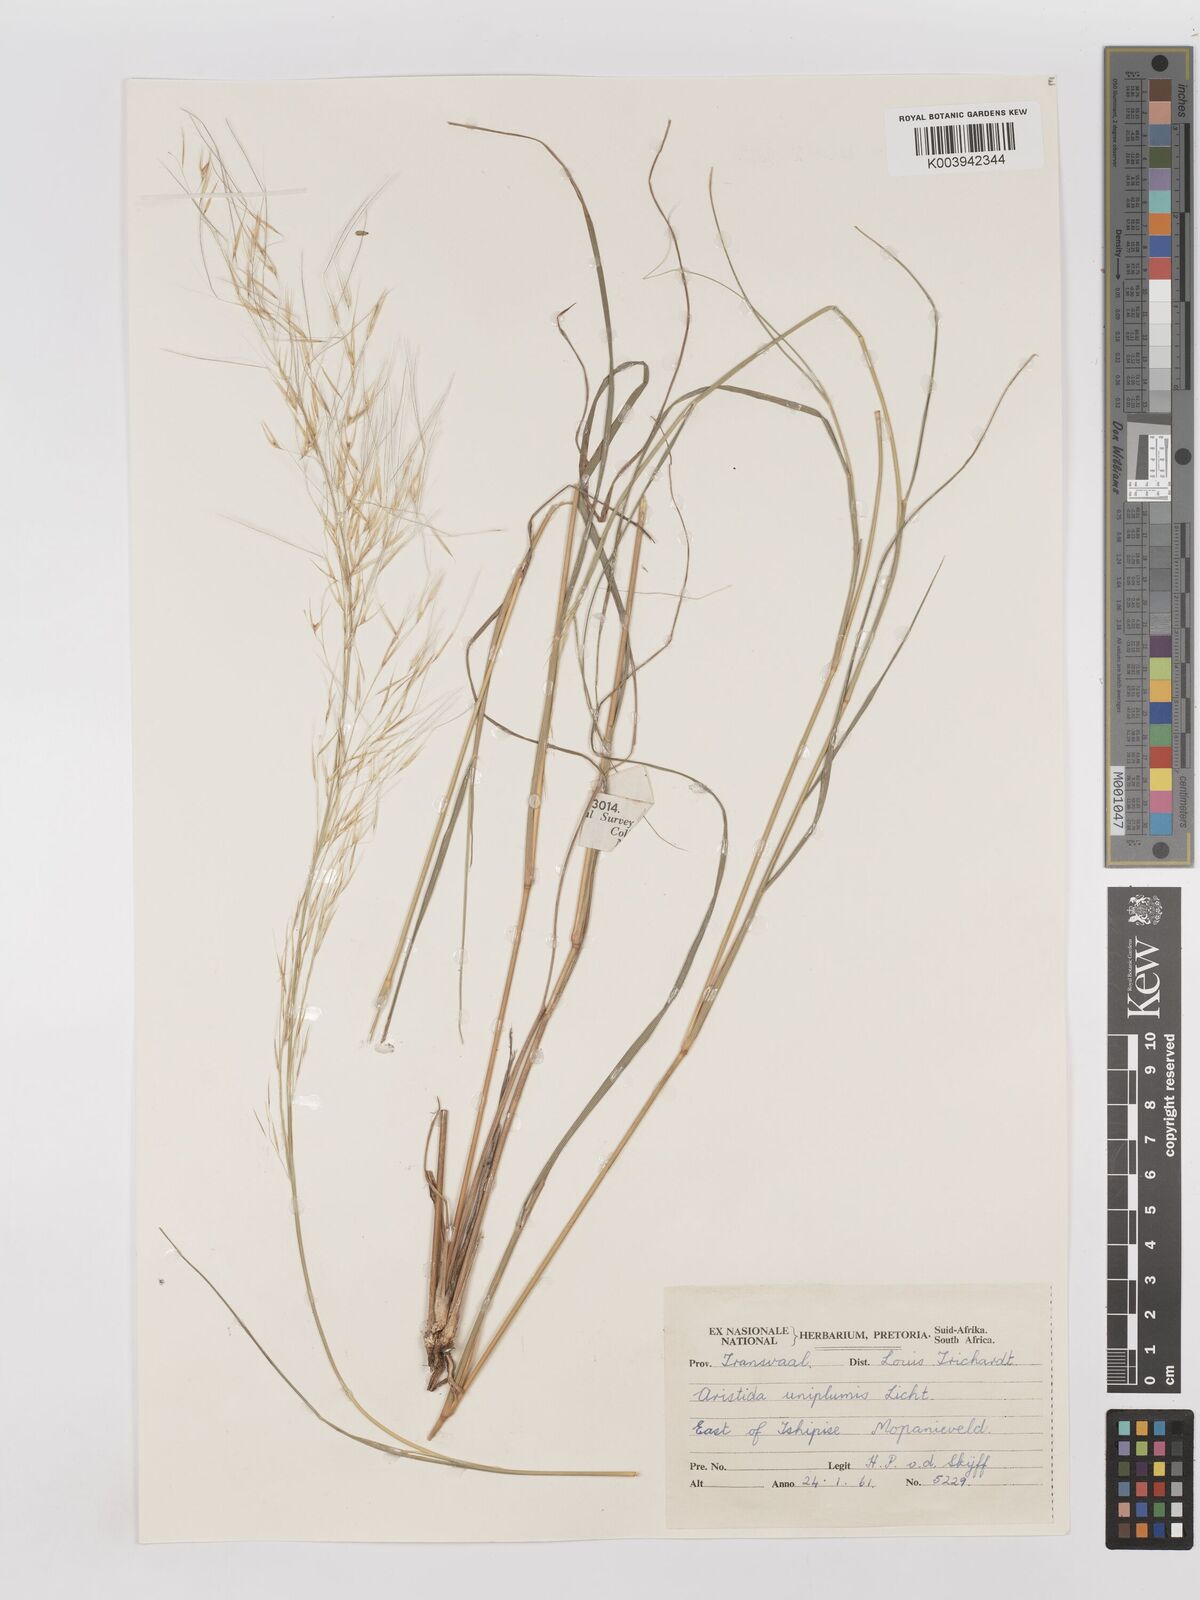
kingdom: Plantae
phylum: Tracheophyta
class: Liliopsida
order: Poales
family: Poaceae
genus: Stipagrostis
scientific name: Stipagrostis uniplumis
